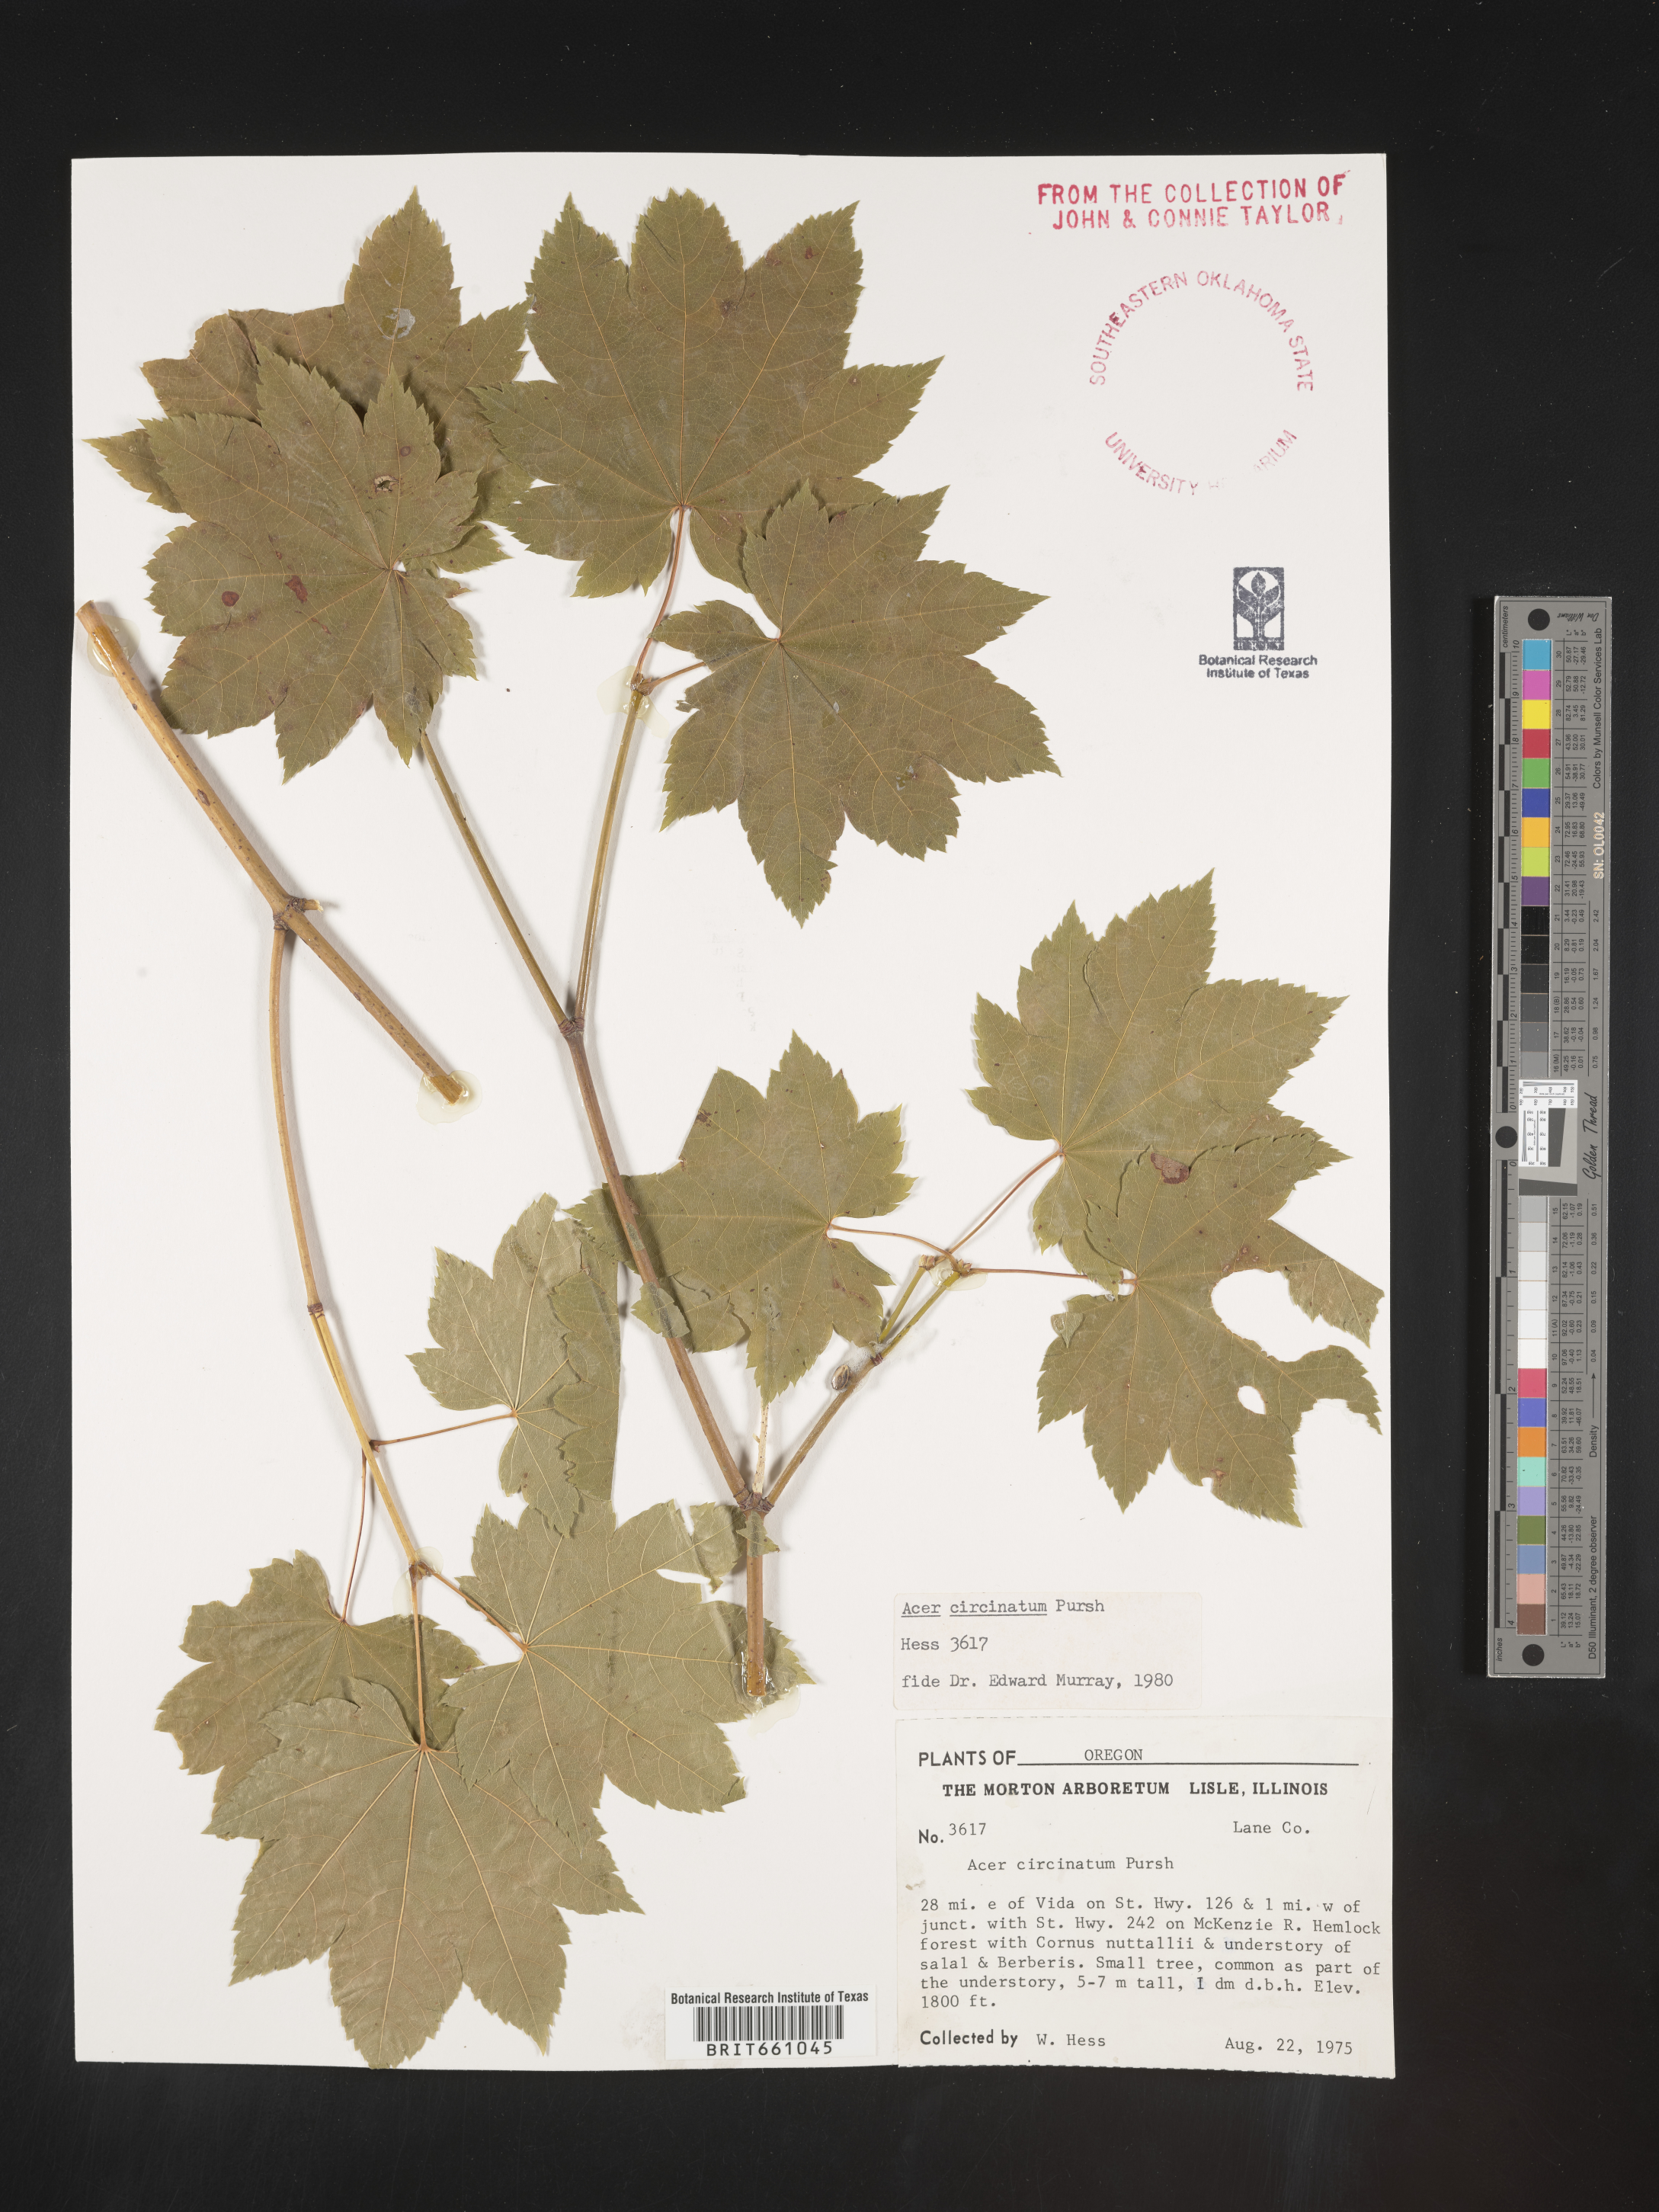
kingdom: Plantae
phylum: Tracheophyta
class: Magnoliopsida
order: Sapindales
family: Sapindaceae
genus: Acer
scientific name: Acer circinatum
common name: Vine maple
